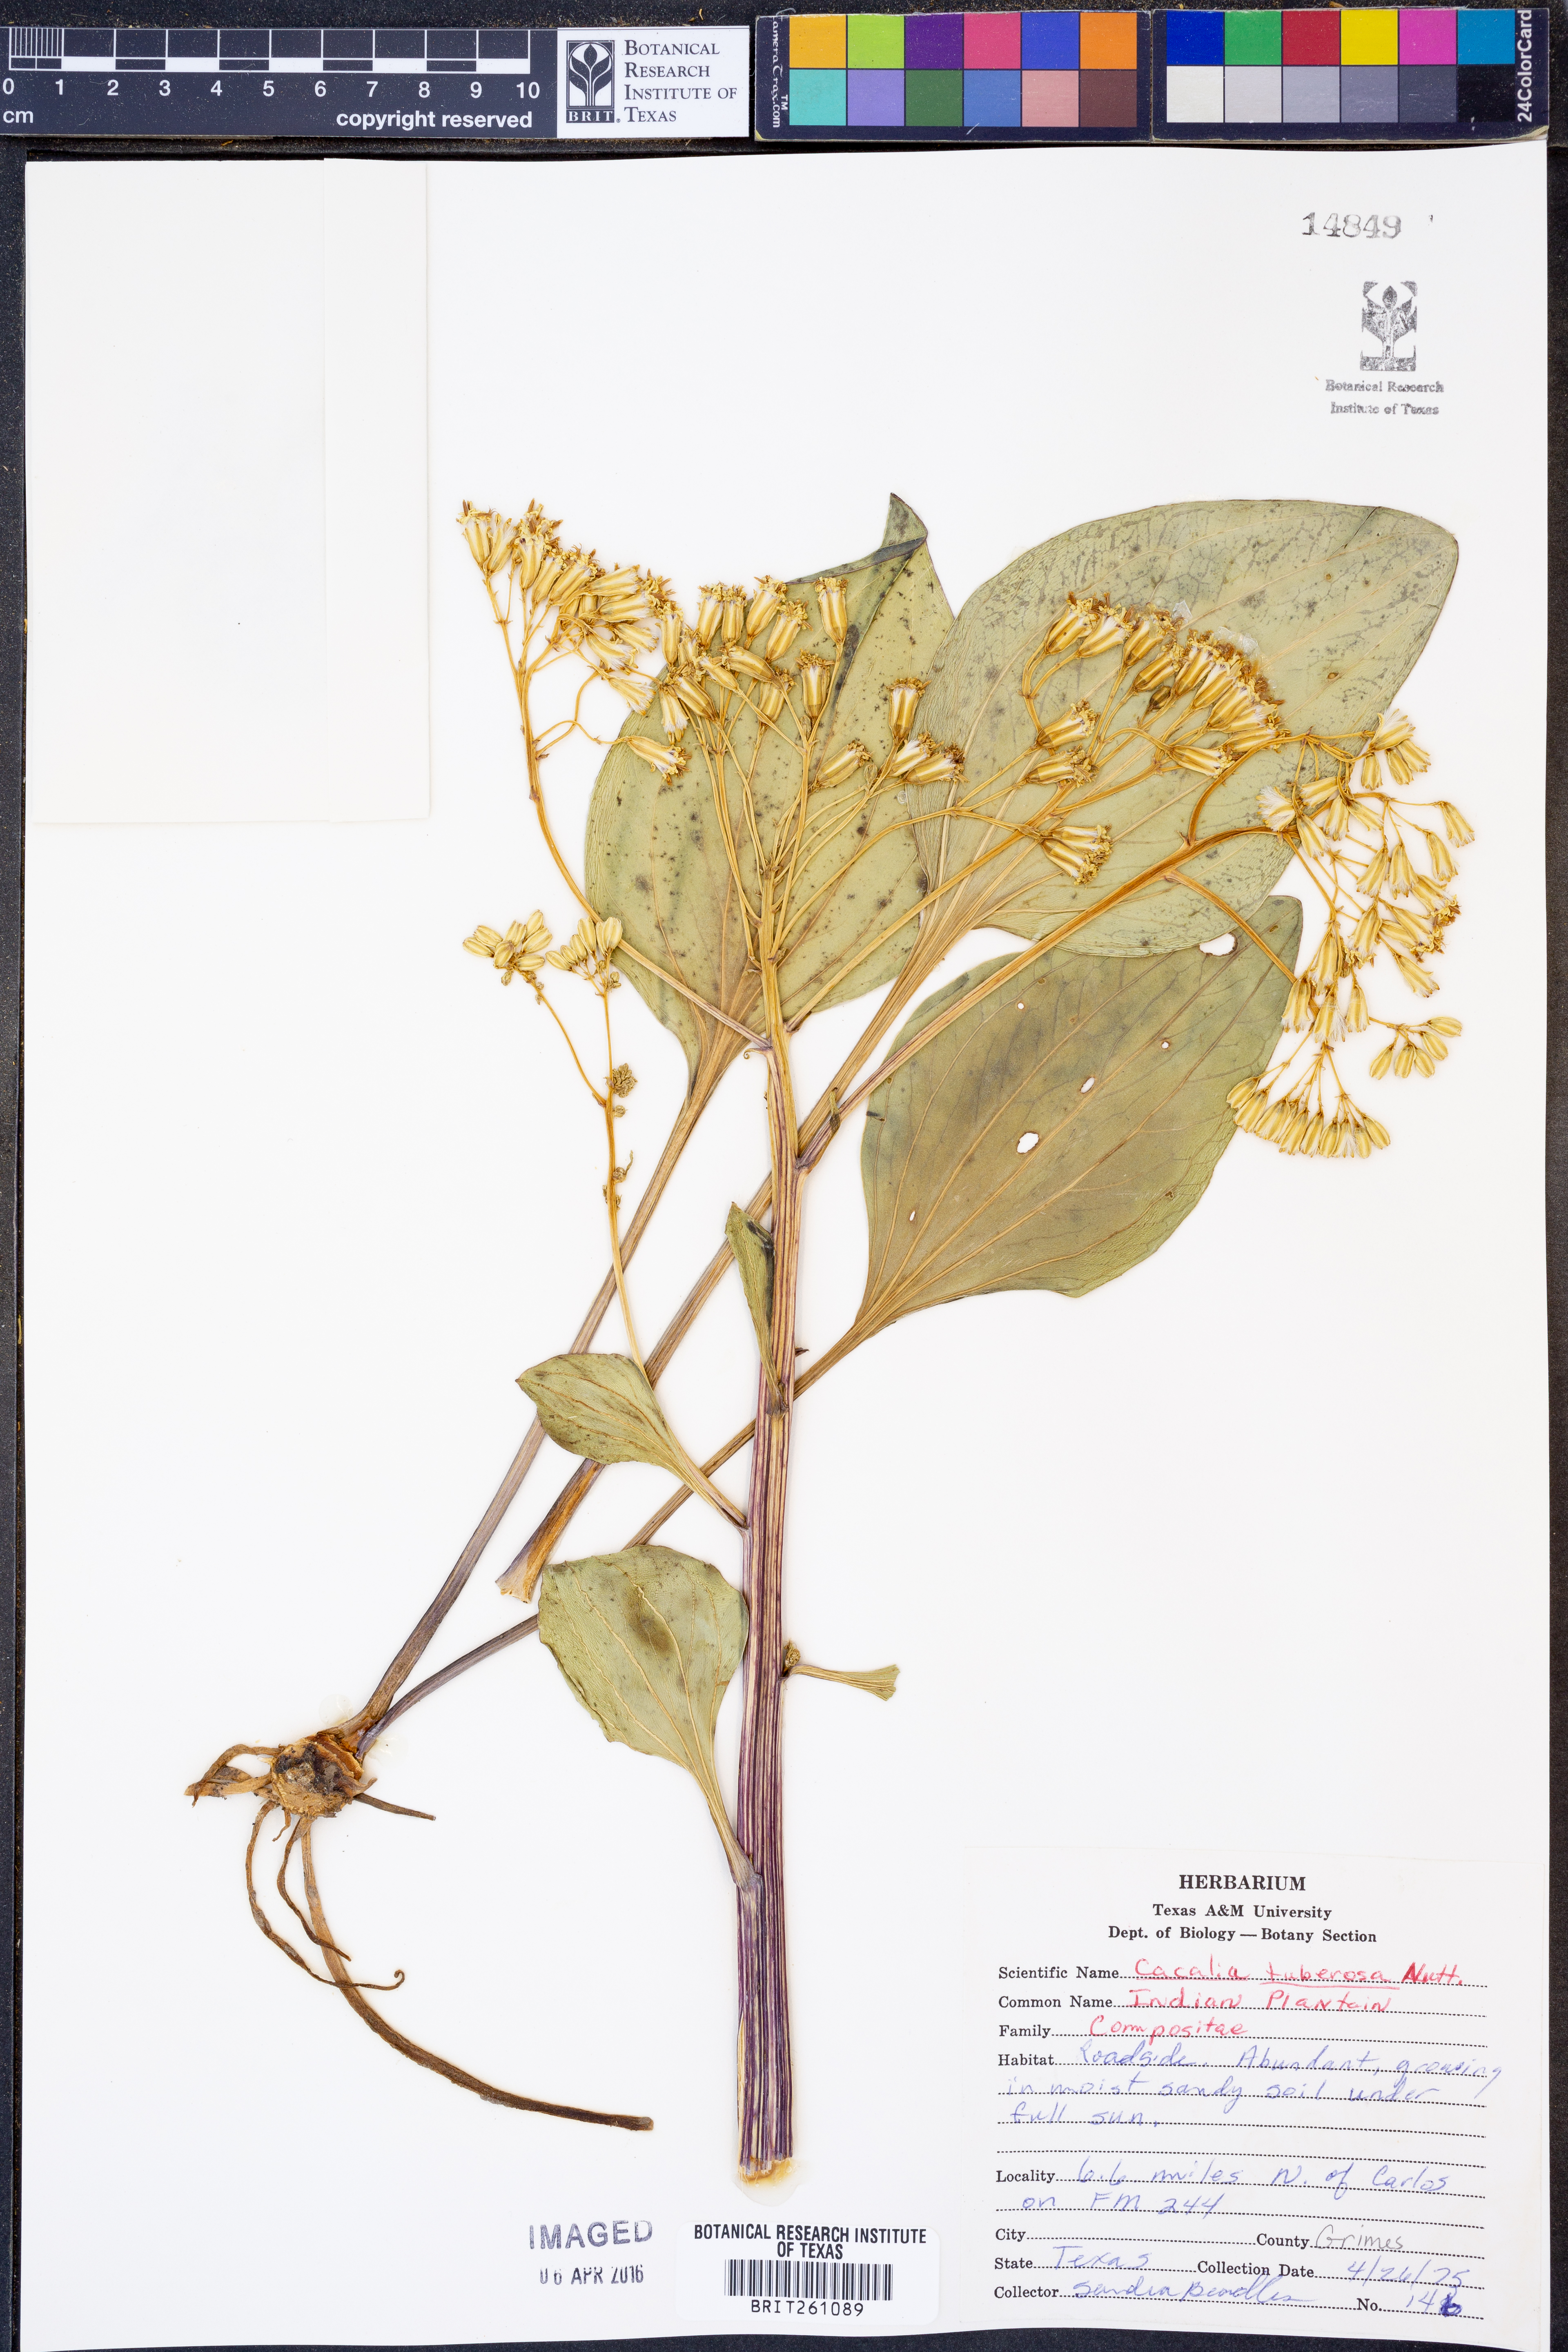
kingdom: Plantae
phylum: Tracheophyta
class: Magnoliopsida
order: Asterales
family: Asteraceae
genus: Adenostyles
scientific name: Adenostyles Cacalia tuberosa
